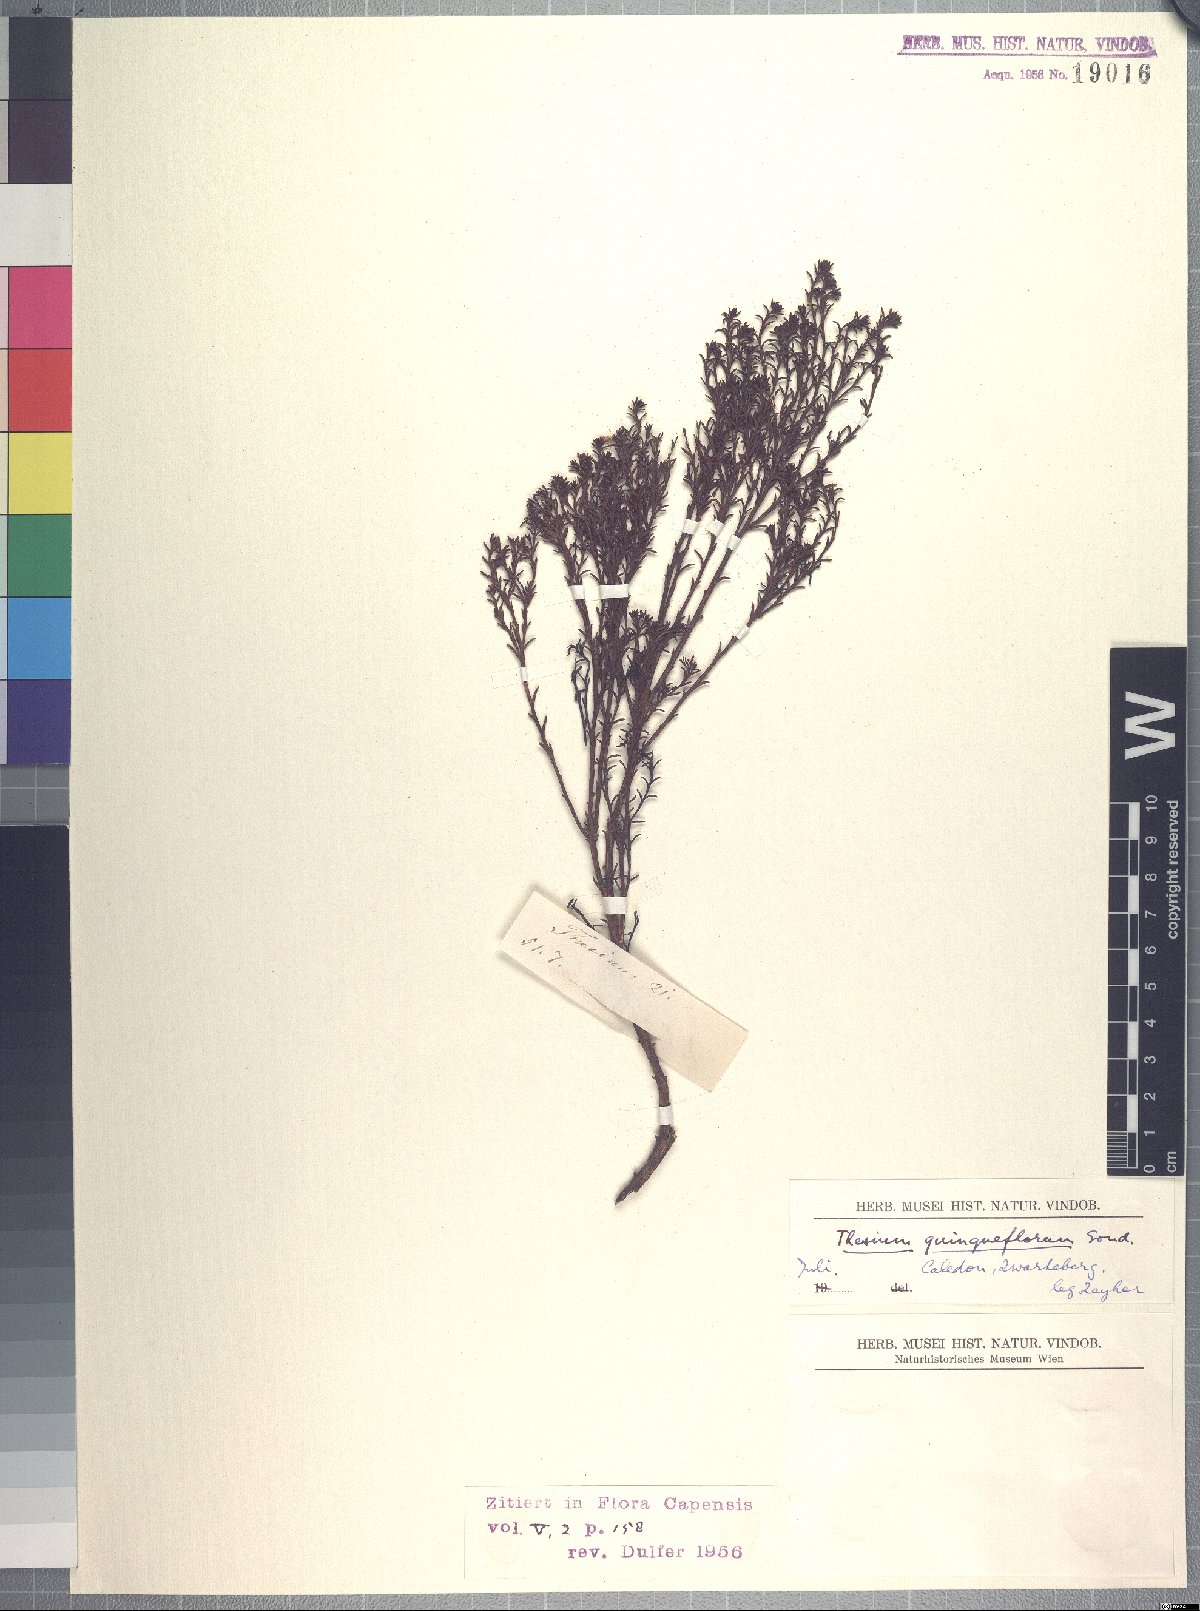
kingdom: Plantae
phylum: Tracheophyta
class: Magnoliopsida
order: Santalales
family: Thesiaceae
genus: Thesium
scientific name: Thesium quinqueflorum
